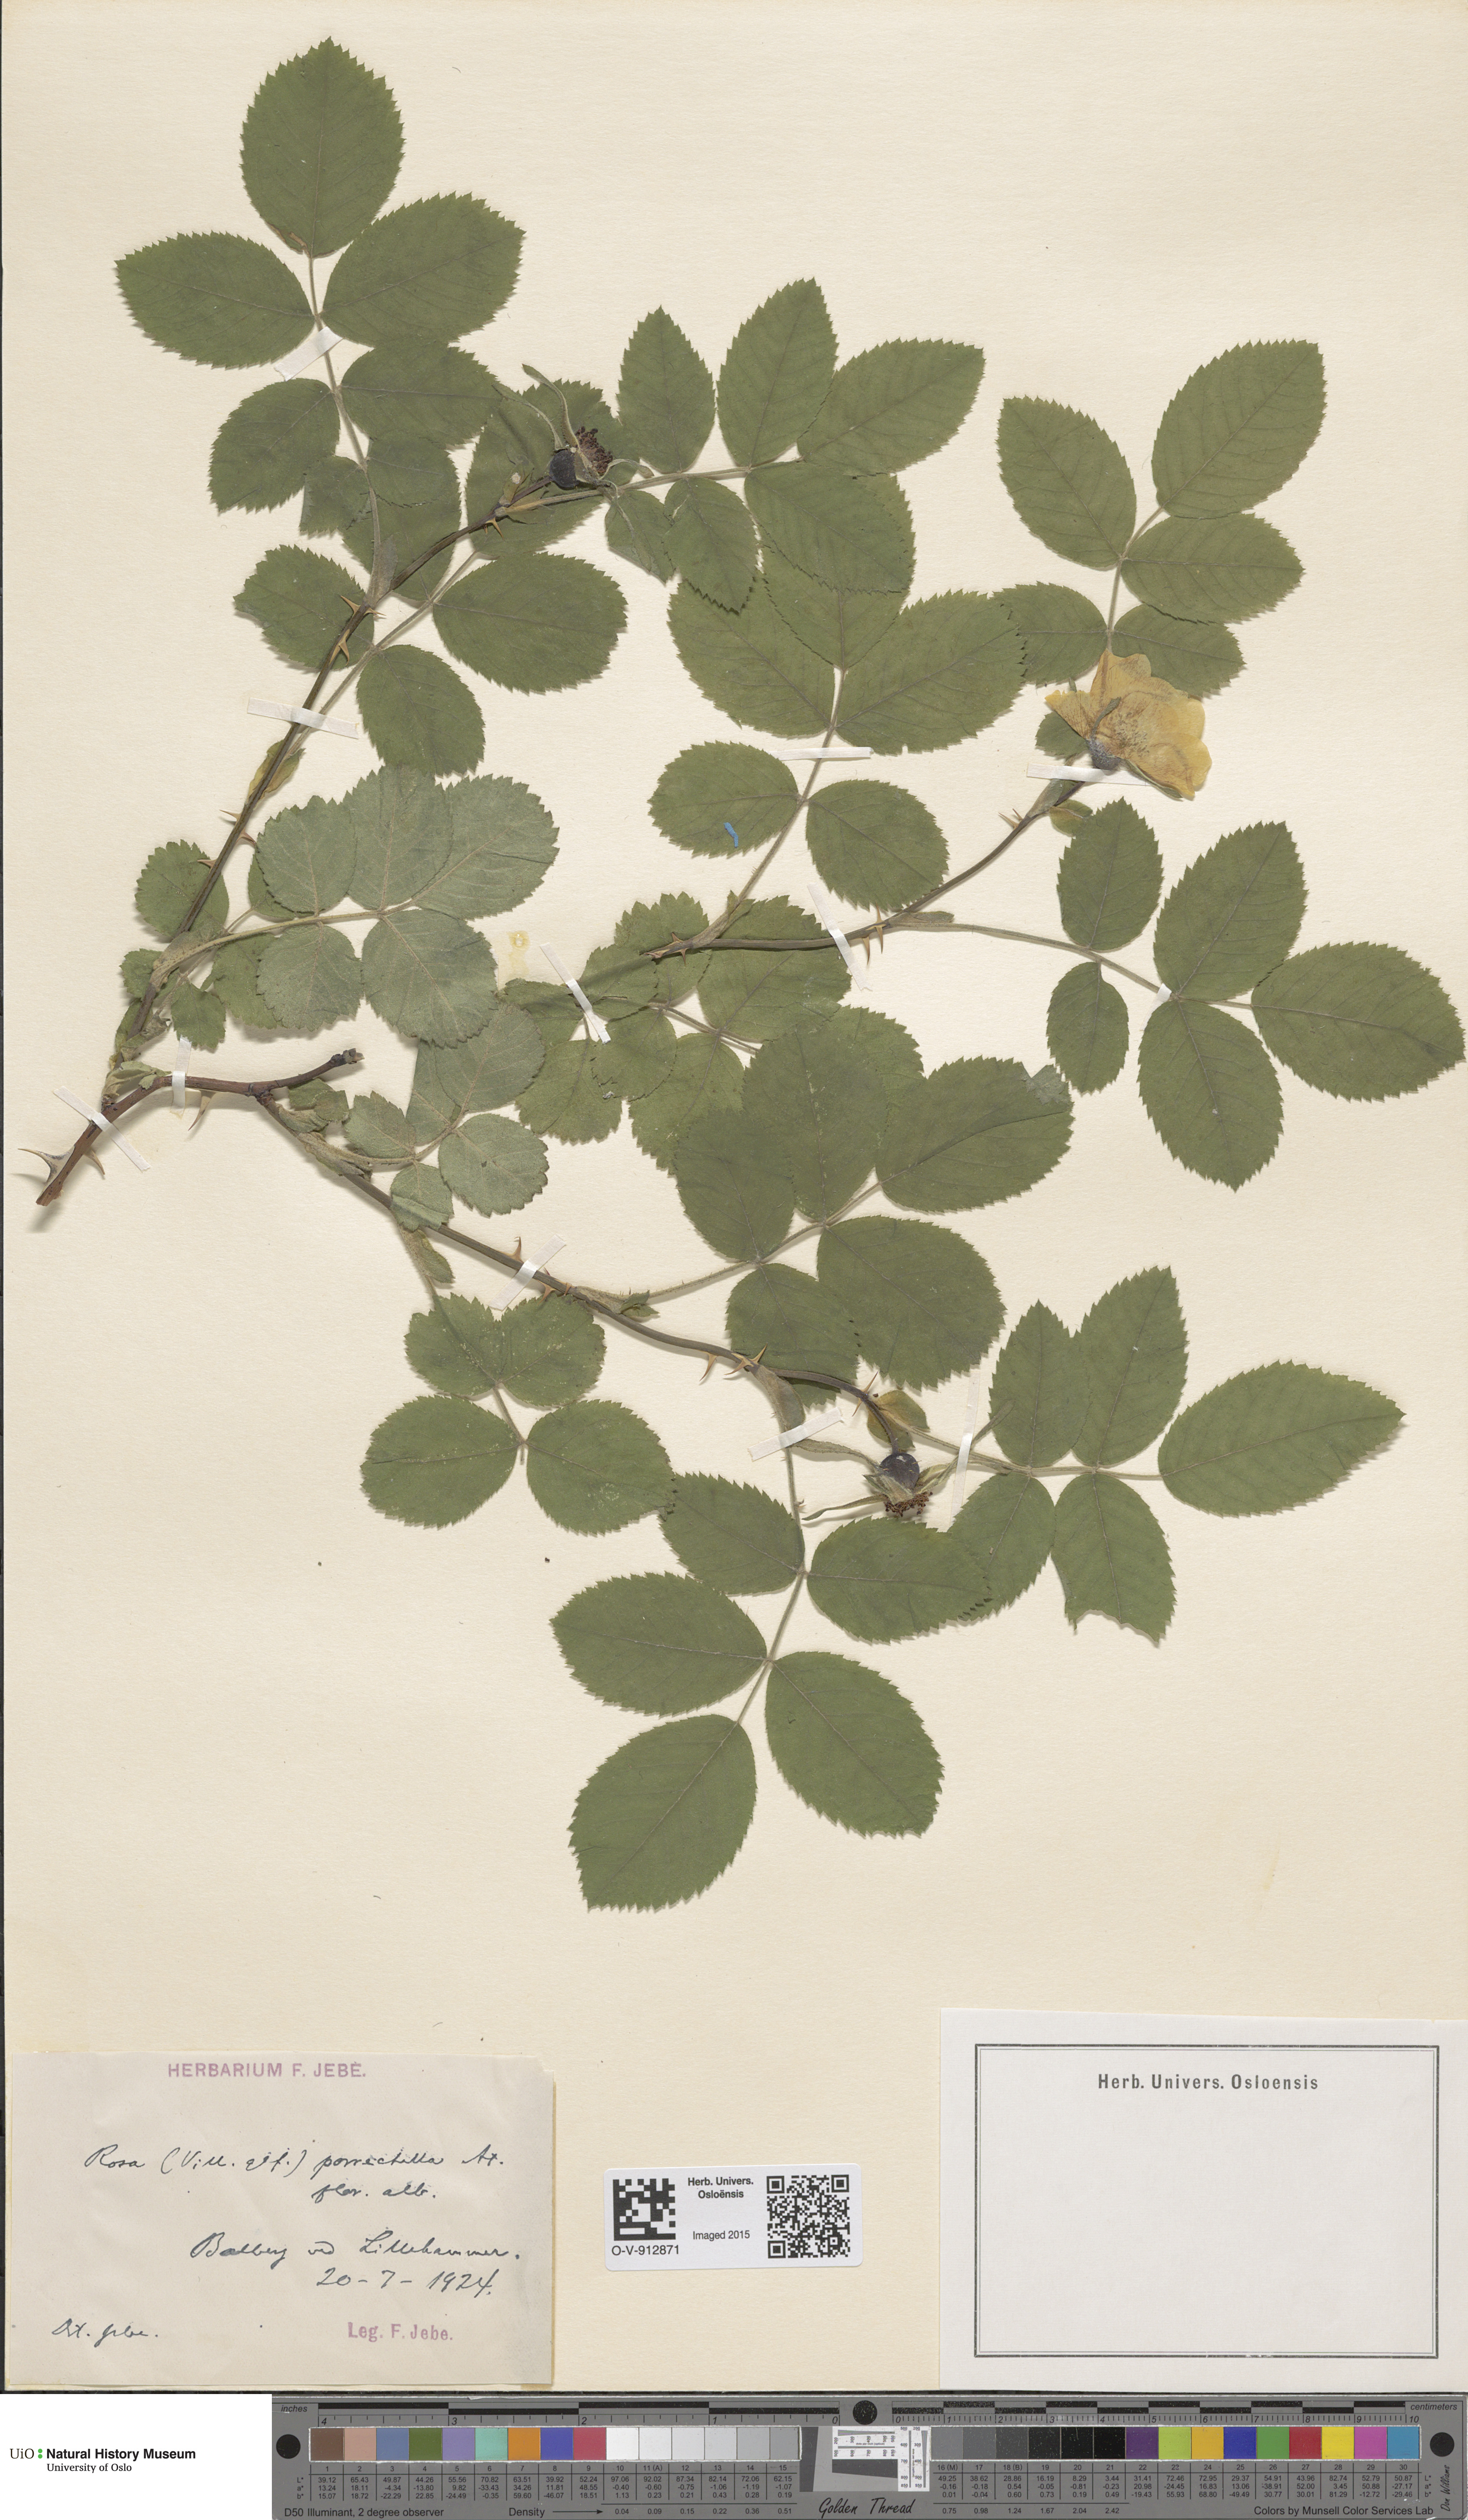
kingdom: Plantae
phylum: Tracheophyta
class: Magnoliopsida
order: Rosales
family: Rosaceae
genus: Rosa
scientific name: Rosa mollis
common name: Rose
